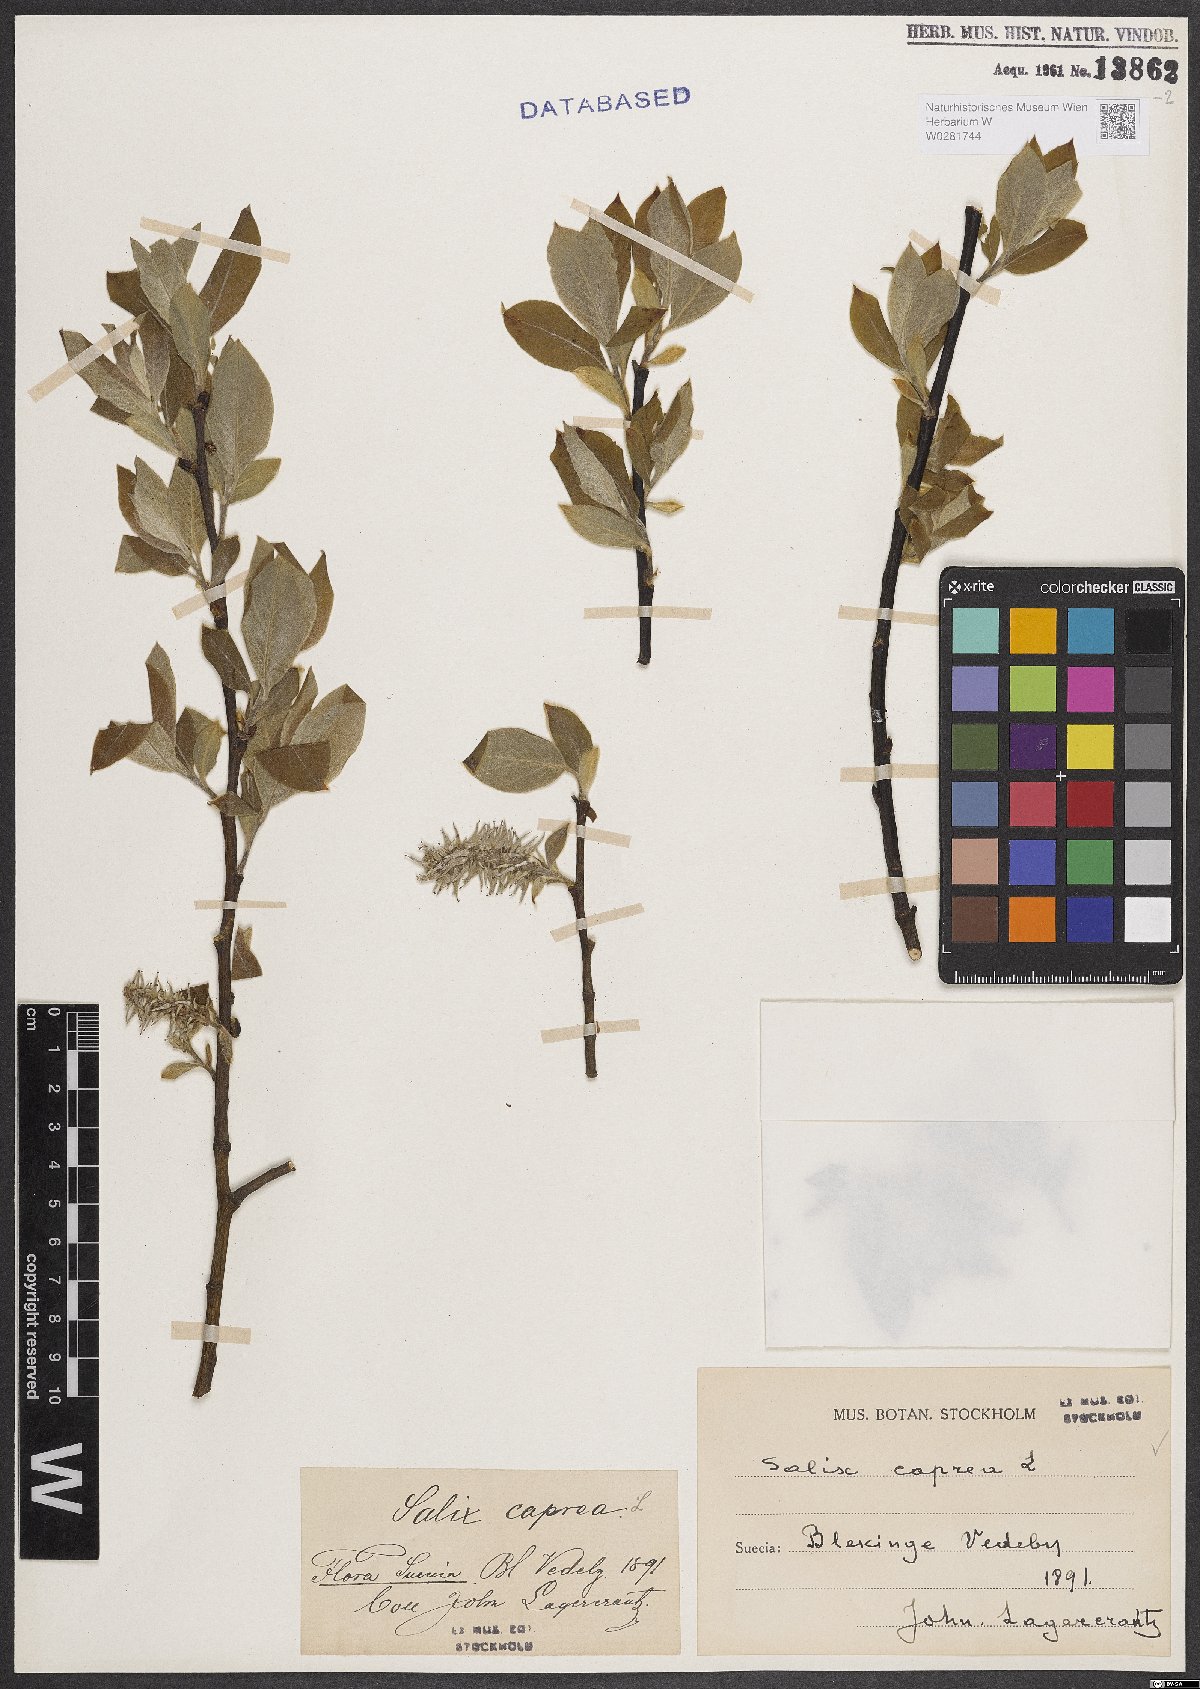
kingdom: Plantae
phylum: Tracheophyta
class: Magnoliopsida
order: Malpighiales
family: Salicaceae
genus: Salix
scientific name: Salix caprea
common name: Goat willow
